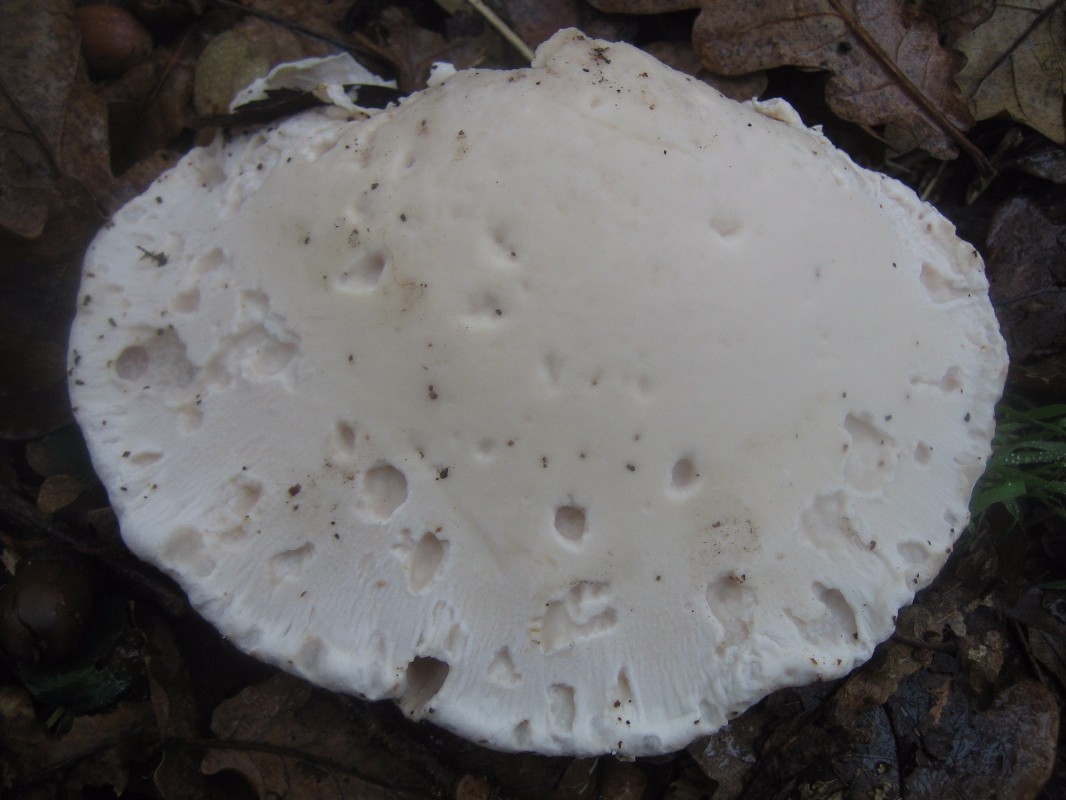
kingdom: Fungi
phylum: Basidiomycota
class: Agaricomycetes
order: Polyporales
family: Fomitopsidaceae
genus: Fomitopsis
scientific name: Fomitopsis betulina
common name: birkeporesvamp
